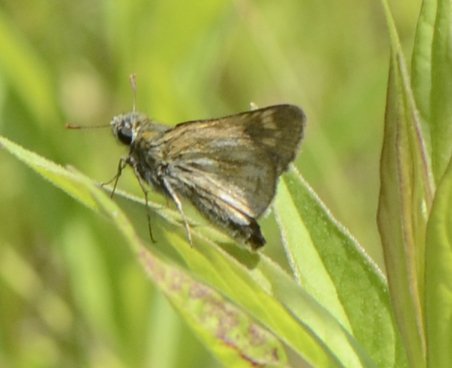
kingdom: Animalia
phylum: Arthropoda
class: Insecta
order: Lepidoptera
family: Hesperiidae
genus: Polites
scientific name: Polites themistocles
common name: Tawny-edged Skipper
